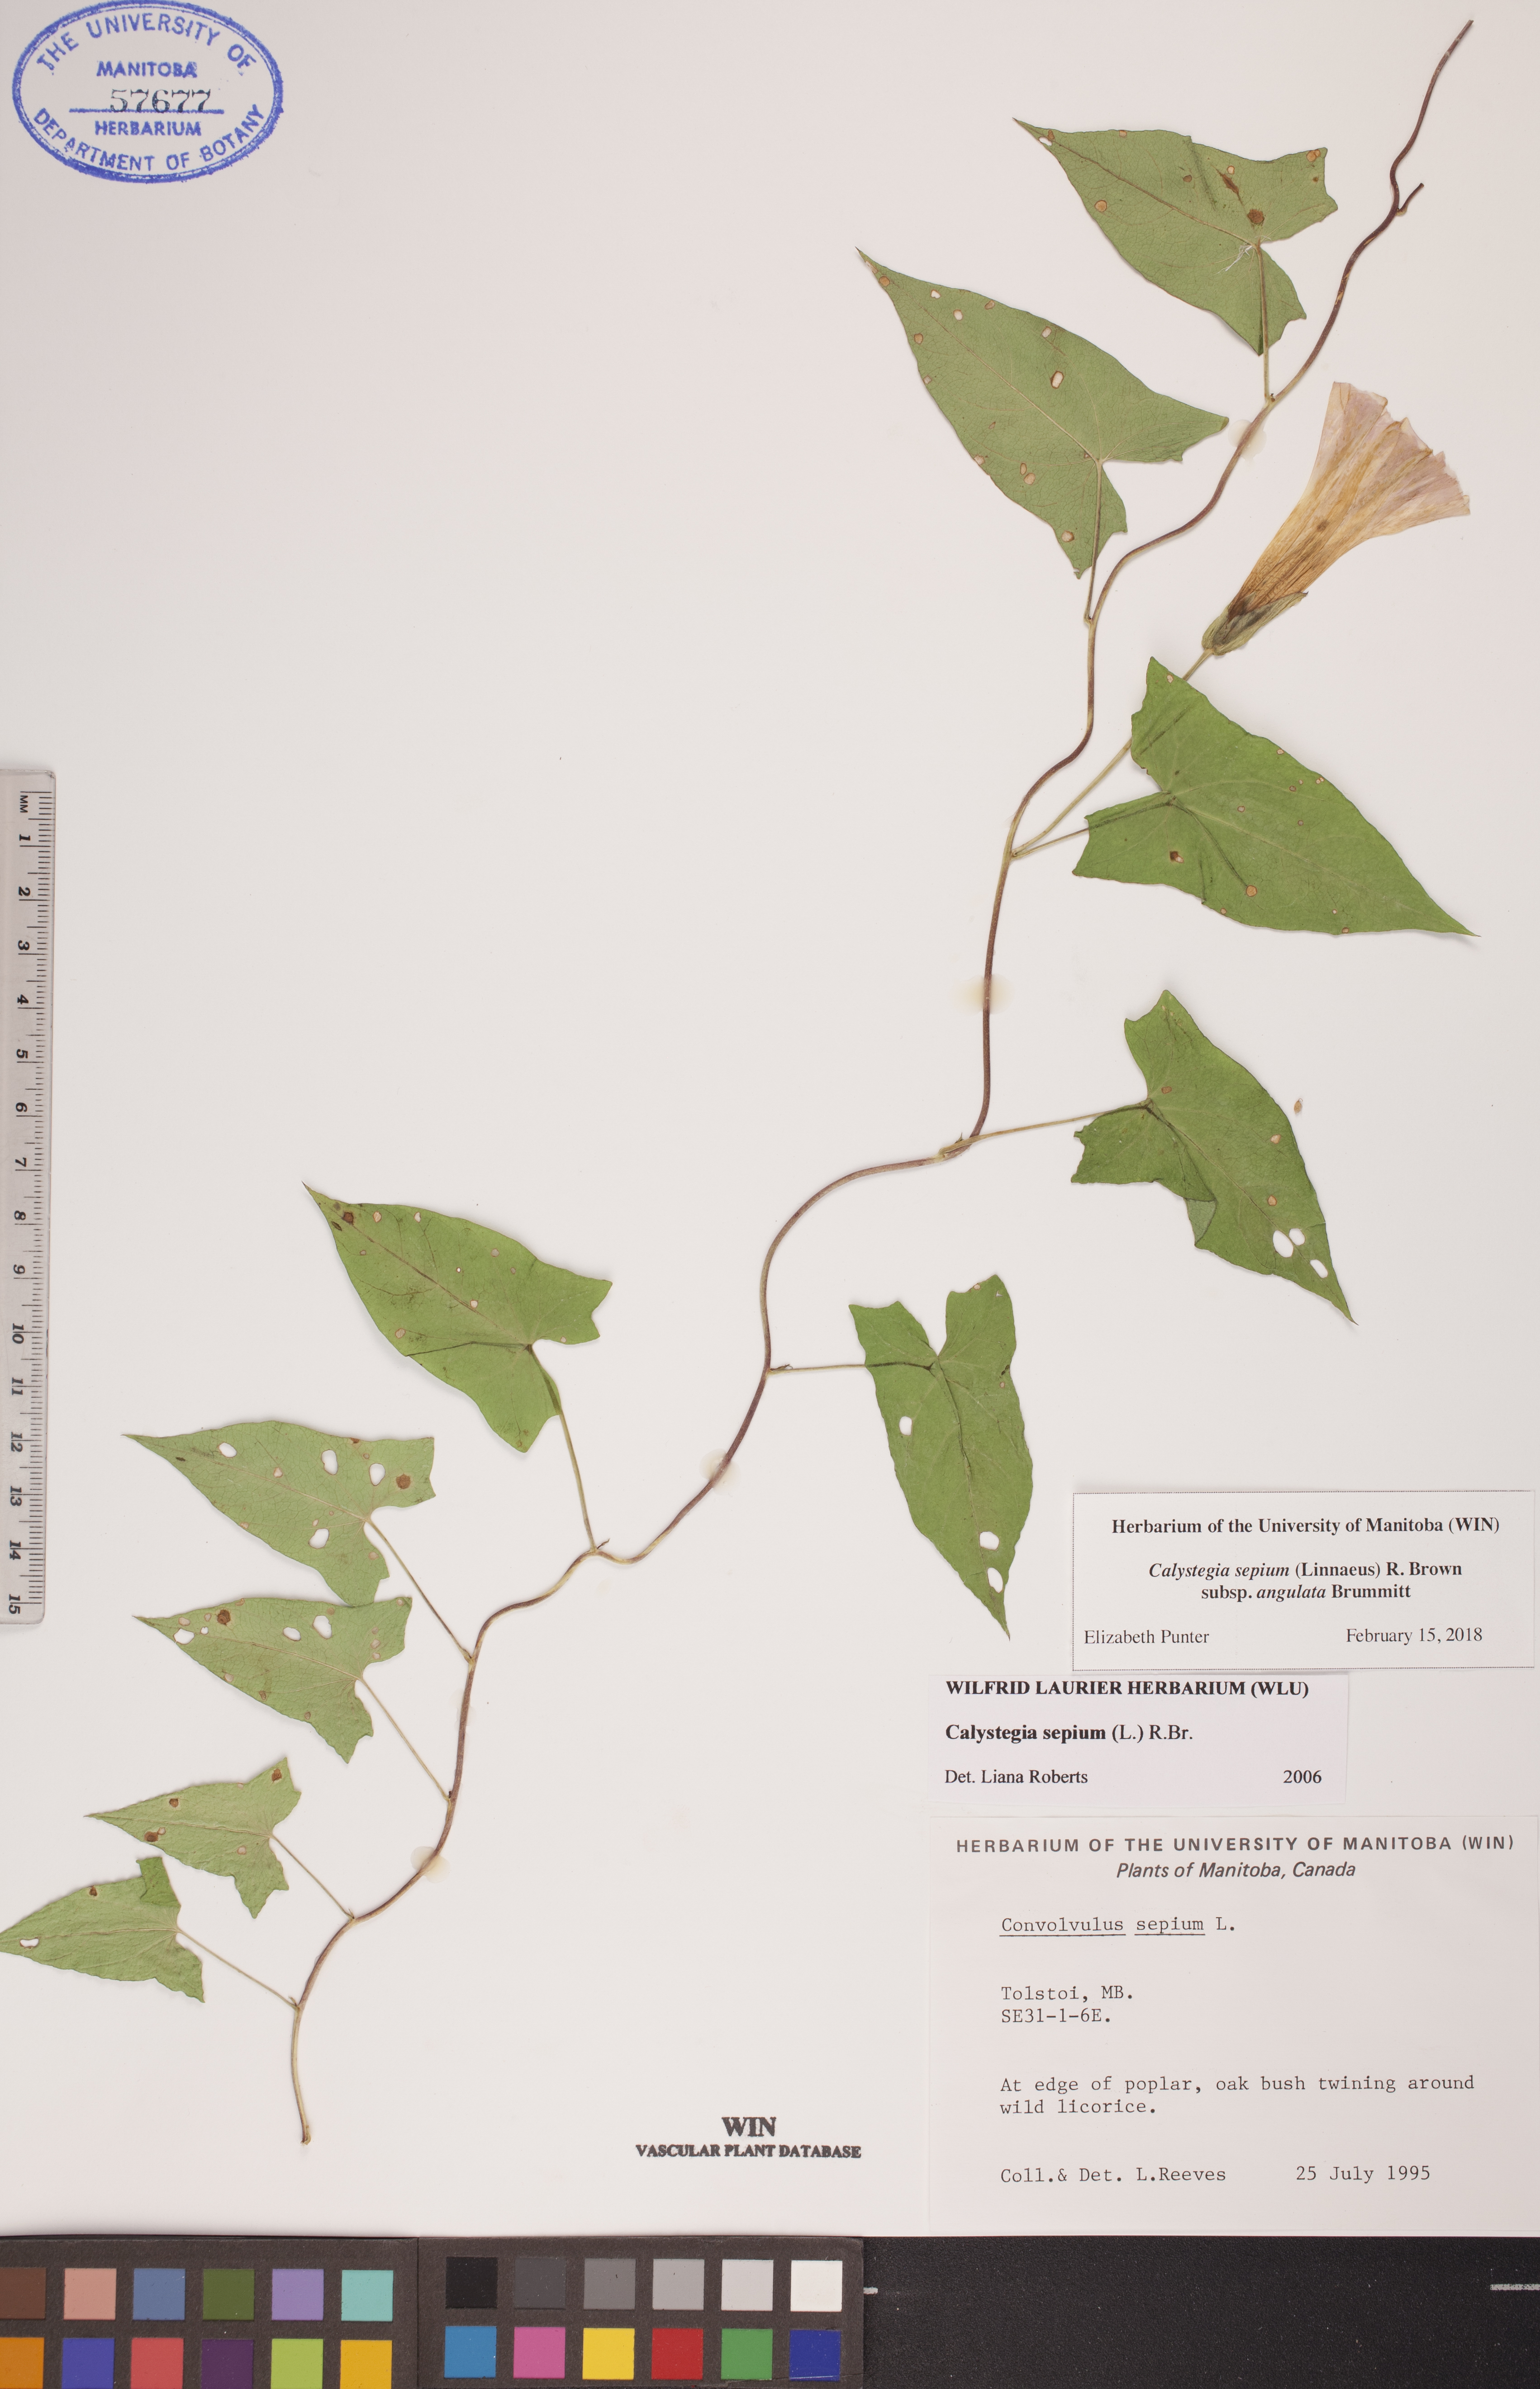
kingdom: Plantae
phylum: Tracheophyta
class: Magnoliopsida
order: Solanales
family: Convolvulaceae
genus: Calystegia
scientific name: Calystegia sepium
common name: Hedge bindweed
